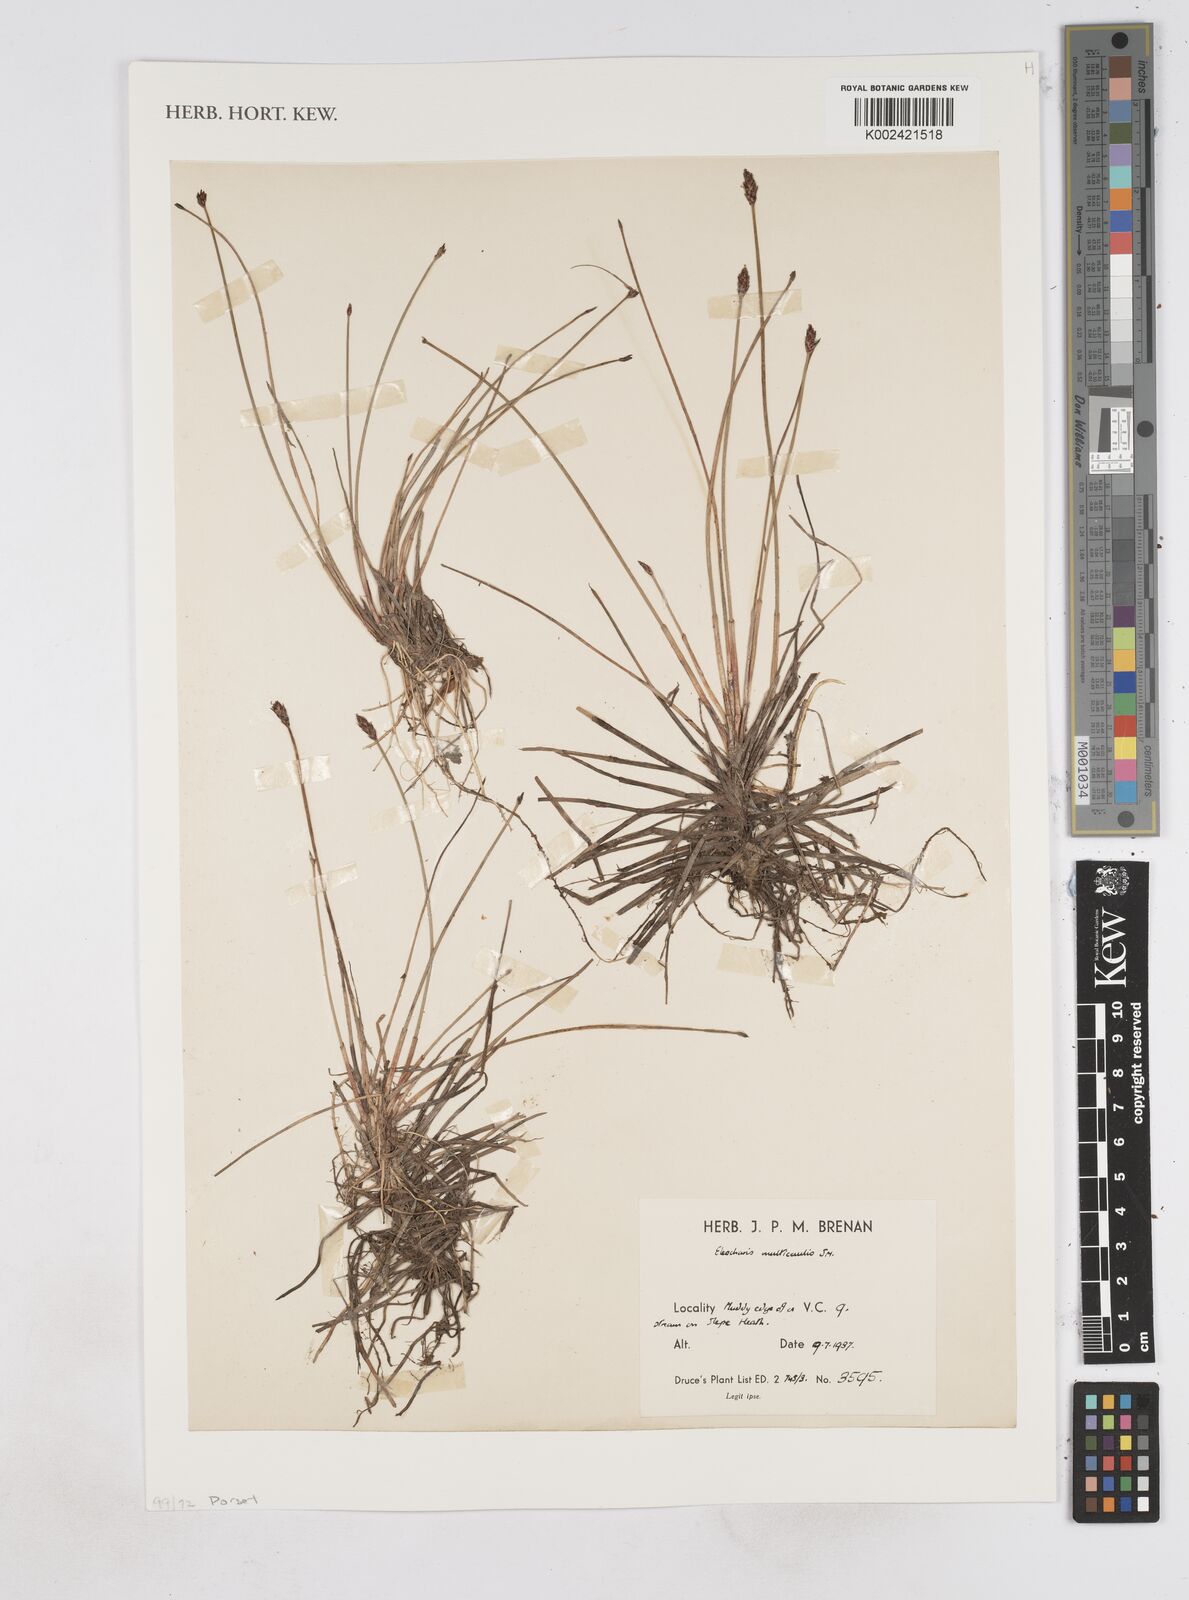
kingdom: Plantae
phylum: Tracheophyta
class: Liliopsida
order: Poales
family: Cyperaceae
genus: Eleocharis
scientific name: Eleocharis multicaulis
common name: Many-stalked spike-rush
